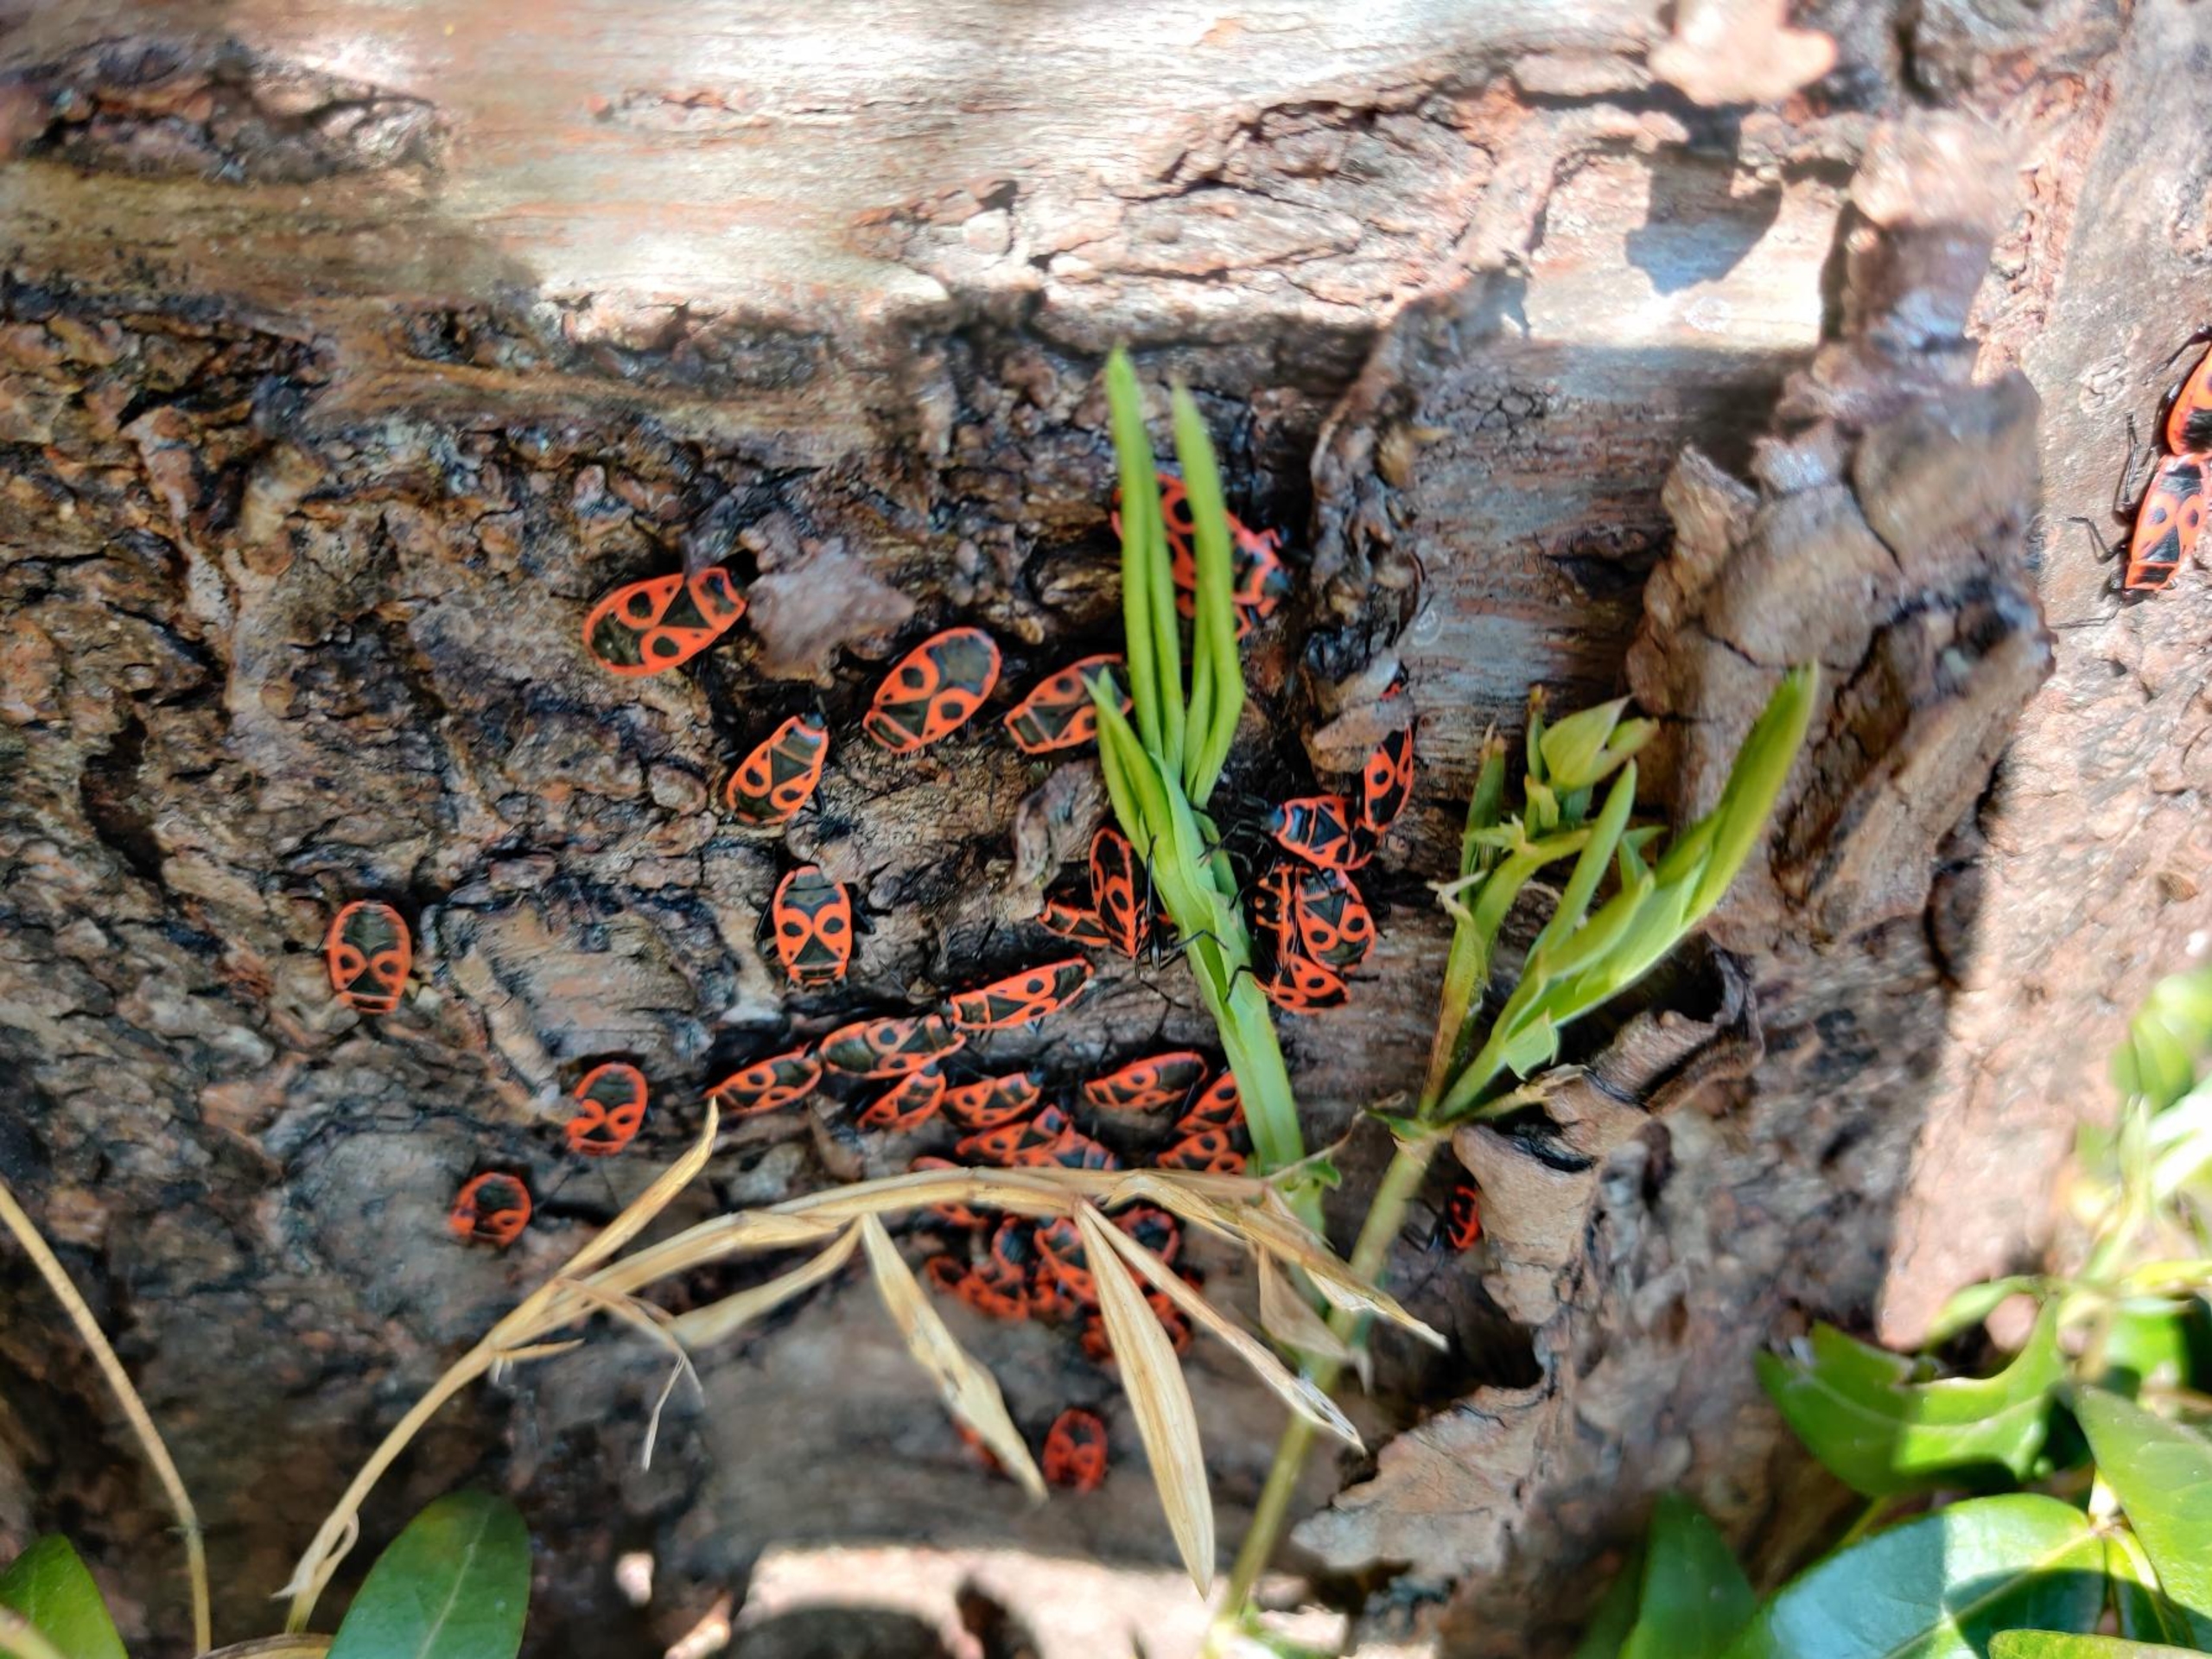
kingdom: Animalia
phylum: Arthropoda
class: Insecta
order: Hemiptera
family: Pyrrhocoridae
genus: Pyrrhocoris
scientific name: Pyrrhocoris apterus
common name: Ildtæge
